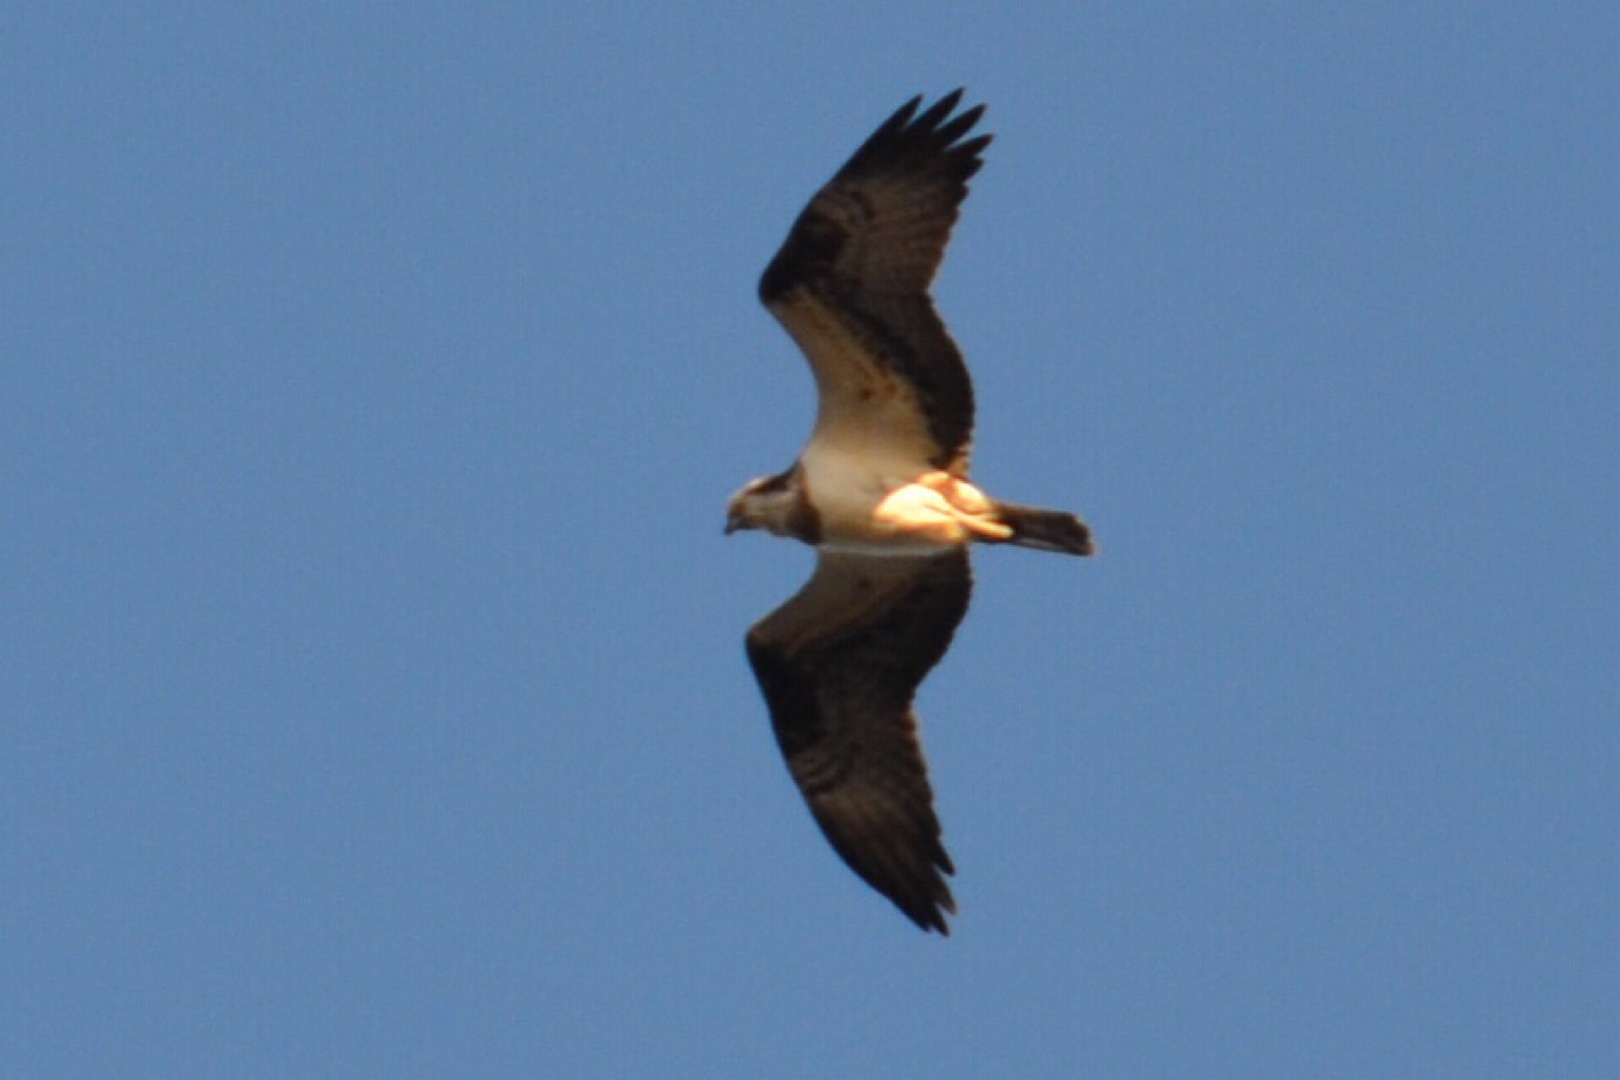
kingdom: Animalia
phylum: Chordata
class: Aves
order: Accipitriformes
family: Pandionidae
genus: Pandion
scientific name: Pandion haliaetus
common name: Fiskeørn
